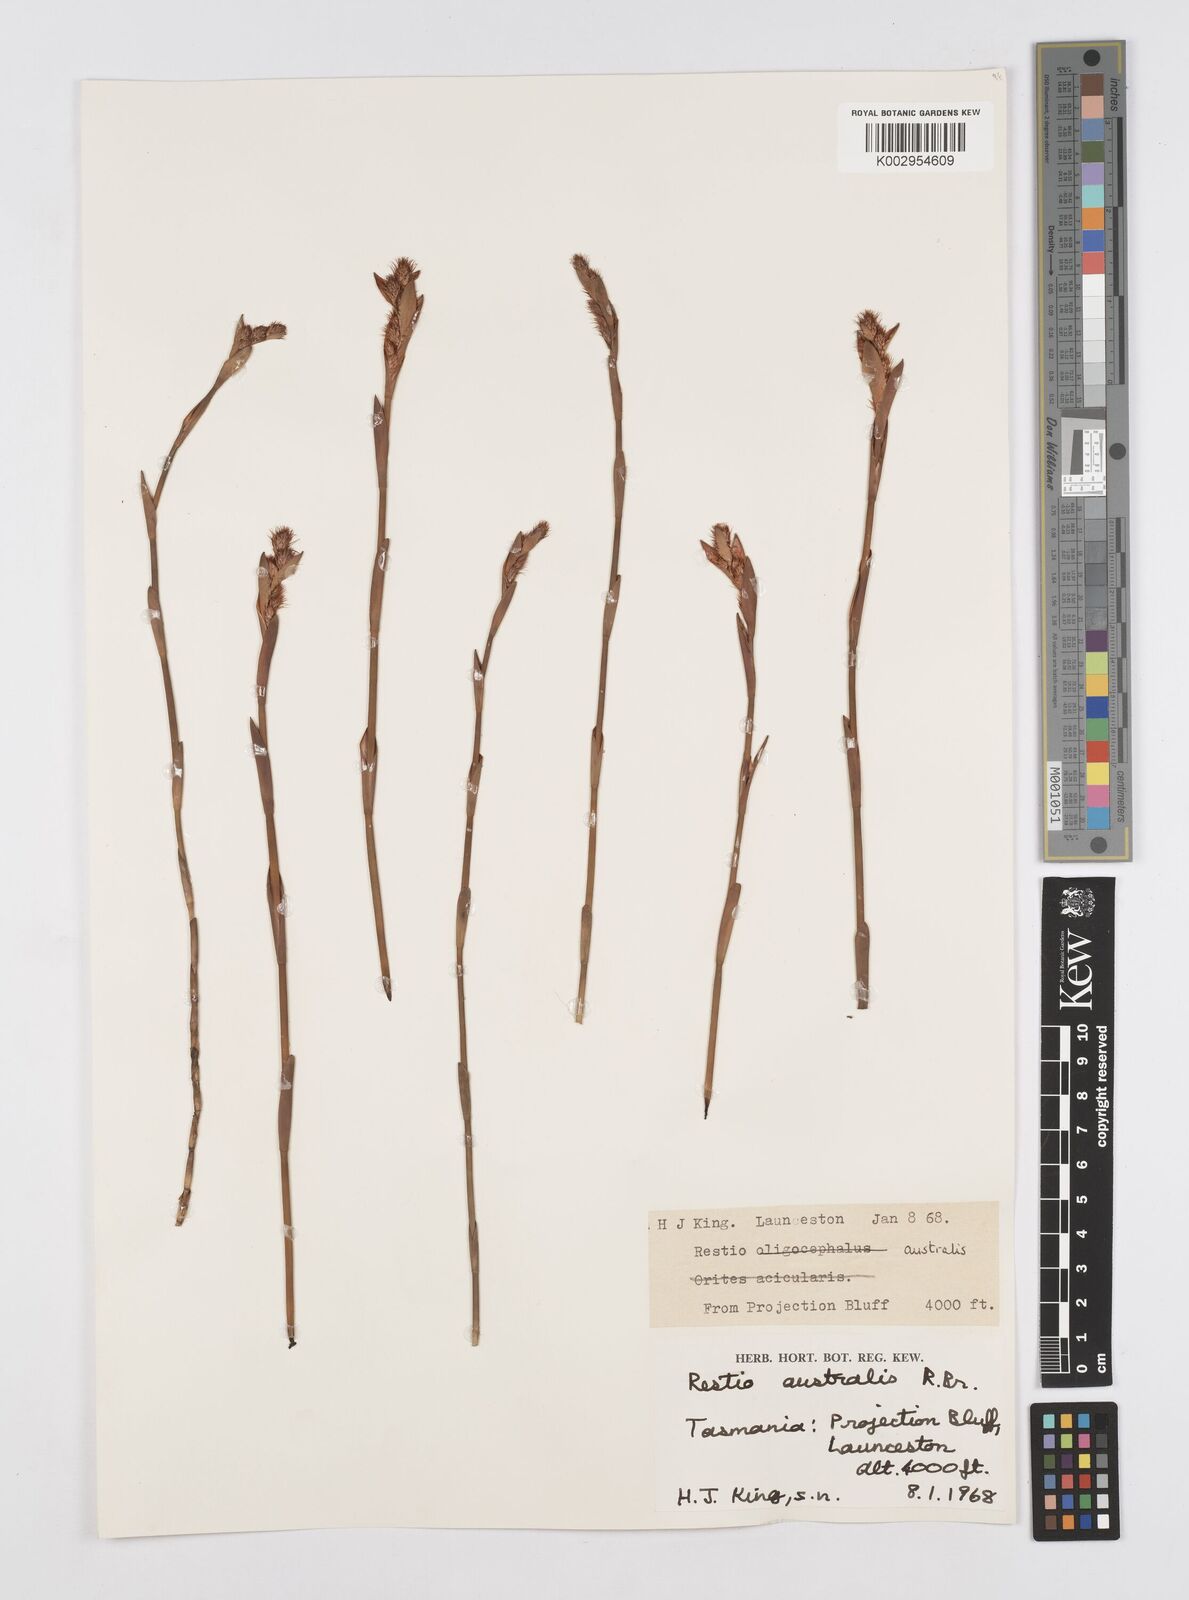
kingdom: Plantae
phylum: Tracheophyta
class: Liliopsida
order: Poales
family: Restionaceae
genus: Baloskion
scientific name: Baloskion australe
